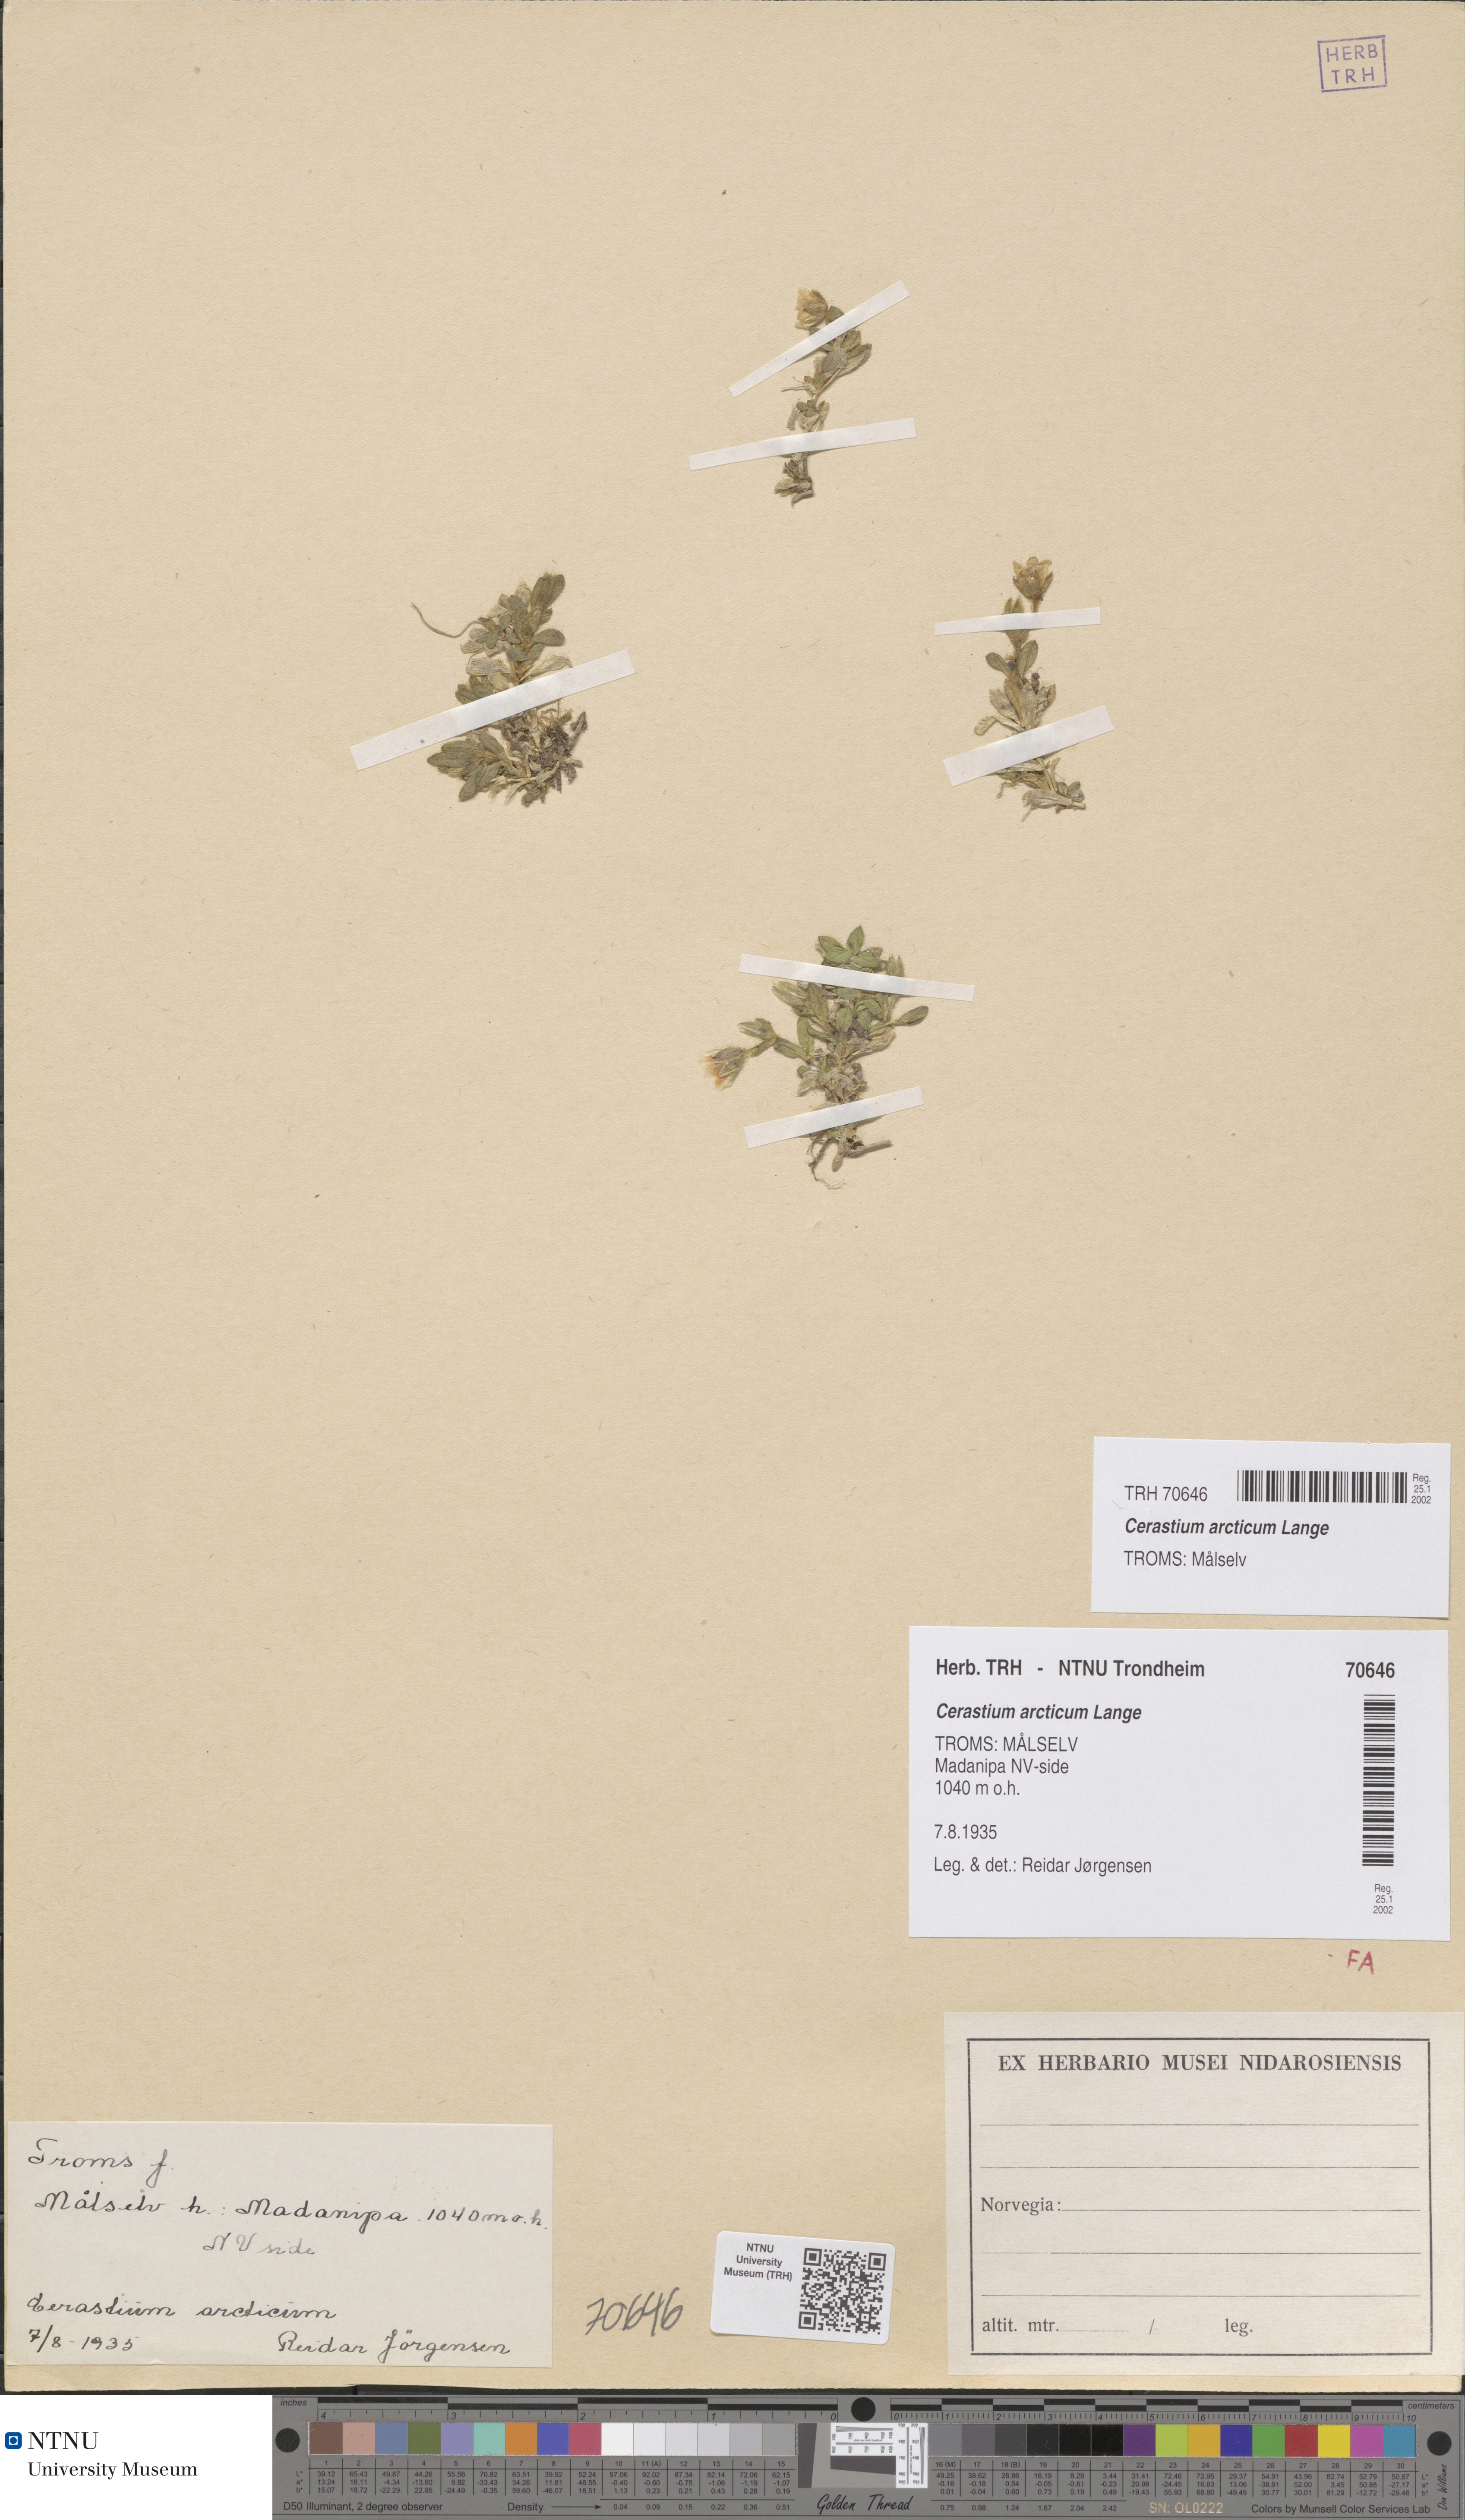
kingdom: Plantae
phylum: Tracheophyta
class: Magnoliopsida
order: Caryophyllales
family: Caryophyllaceae
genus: Cerastium
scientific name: Cerastium nigrescens
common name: Shetland mouse-ear
